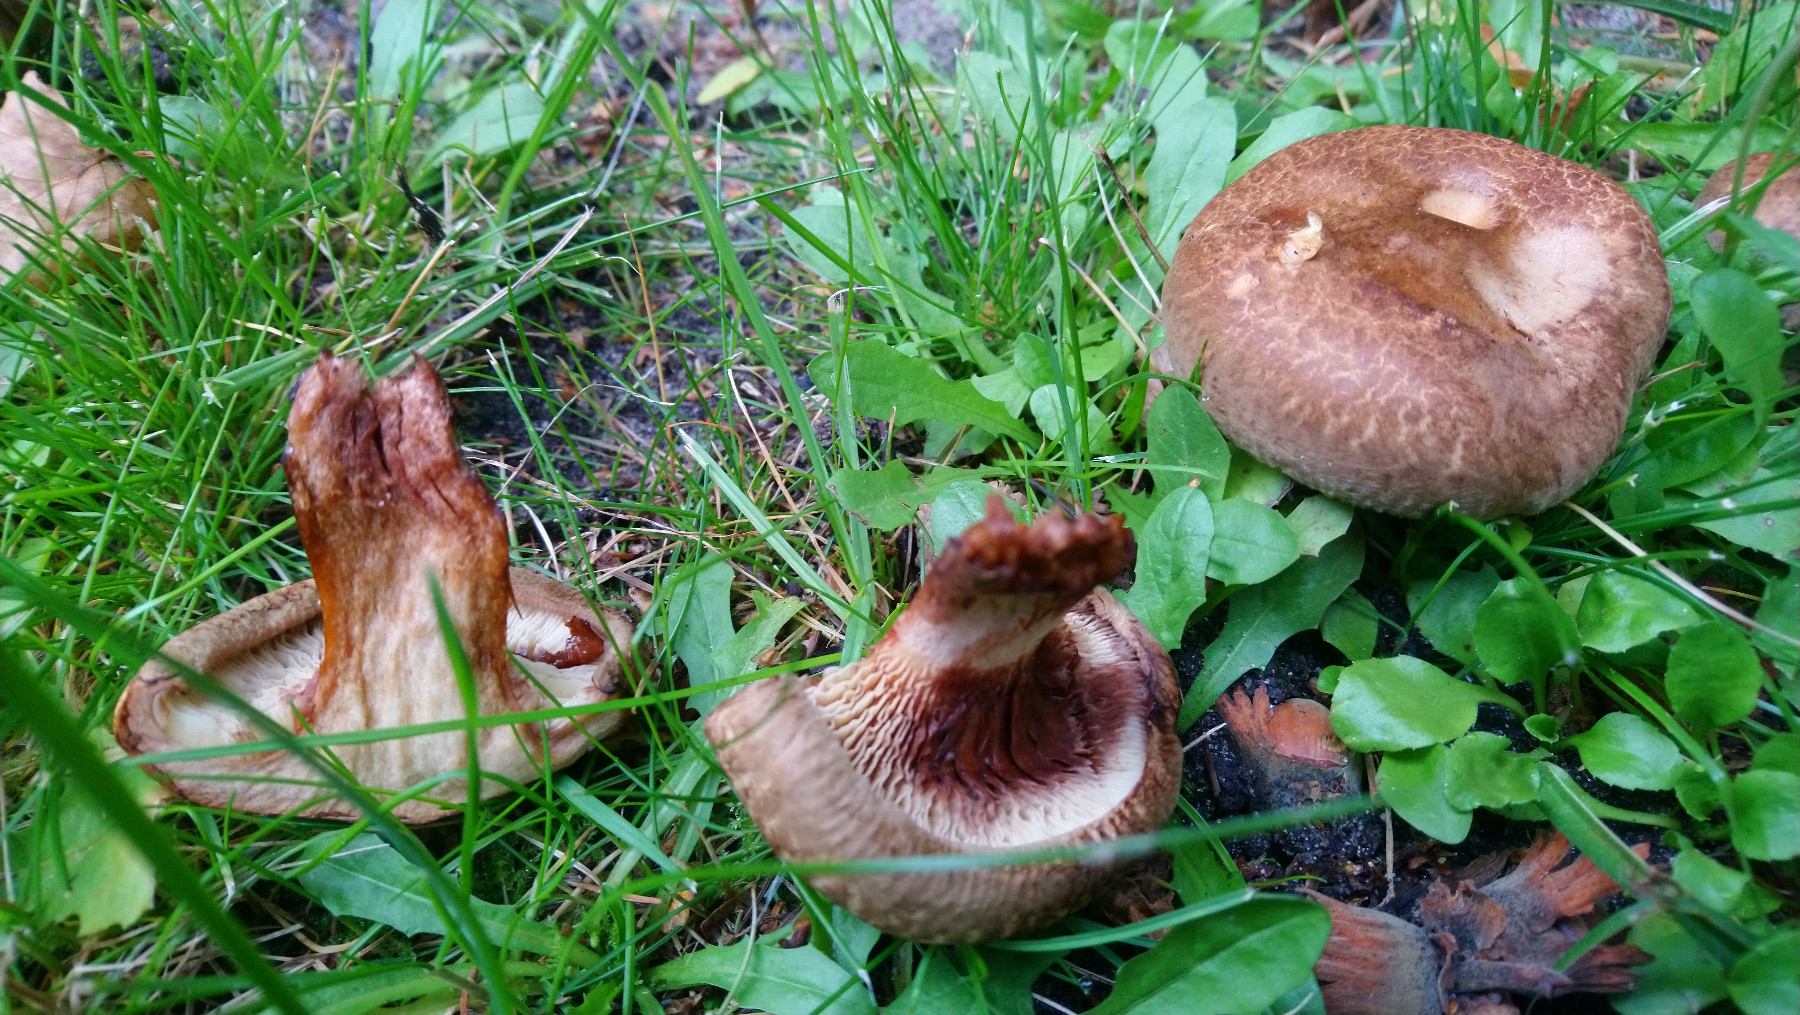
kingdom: Fungi
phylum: Basidiomycota
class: Agaricomycetes
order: Boletales
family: Paxillaceae
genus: Paxillus
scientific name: Paxillus involutus
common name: almindelig netbladhat
